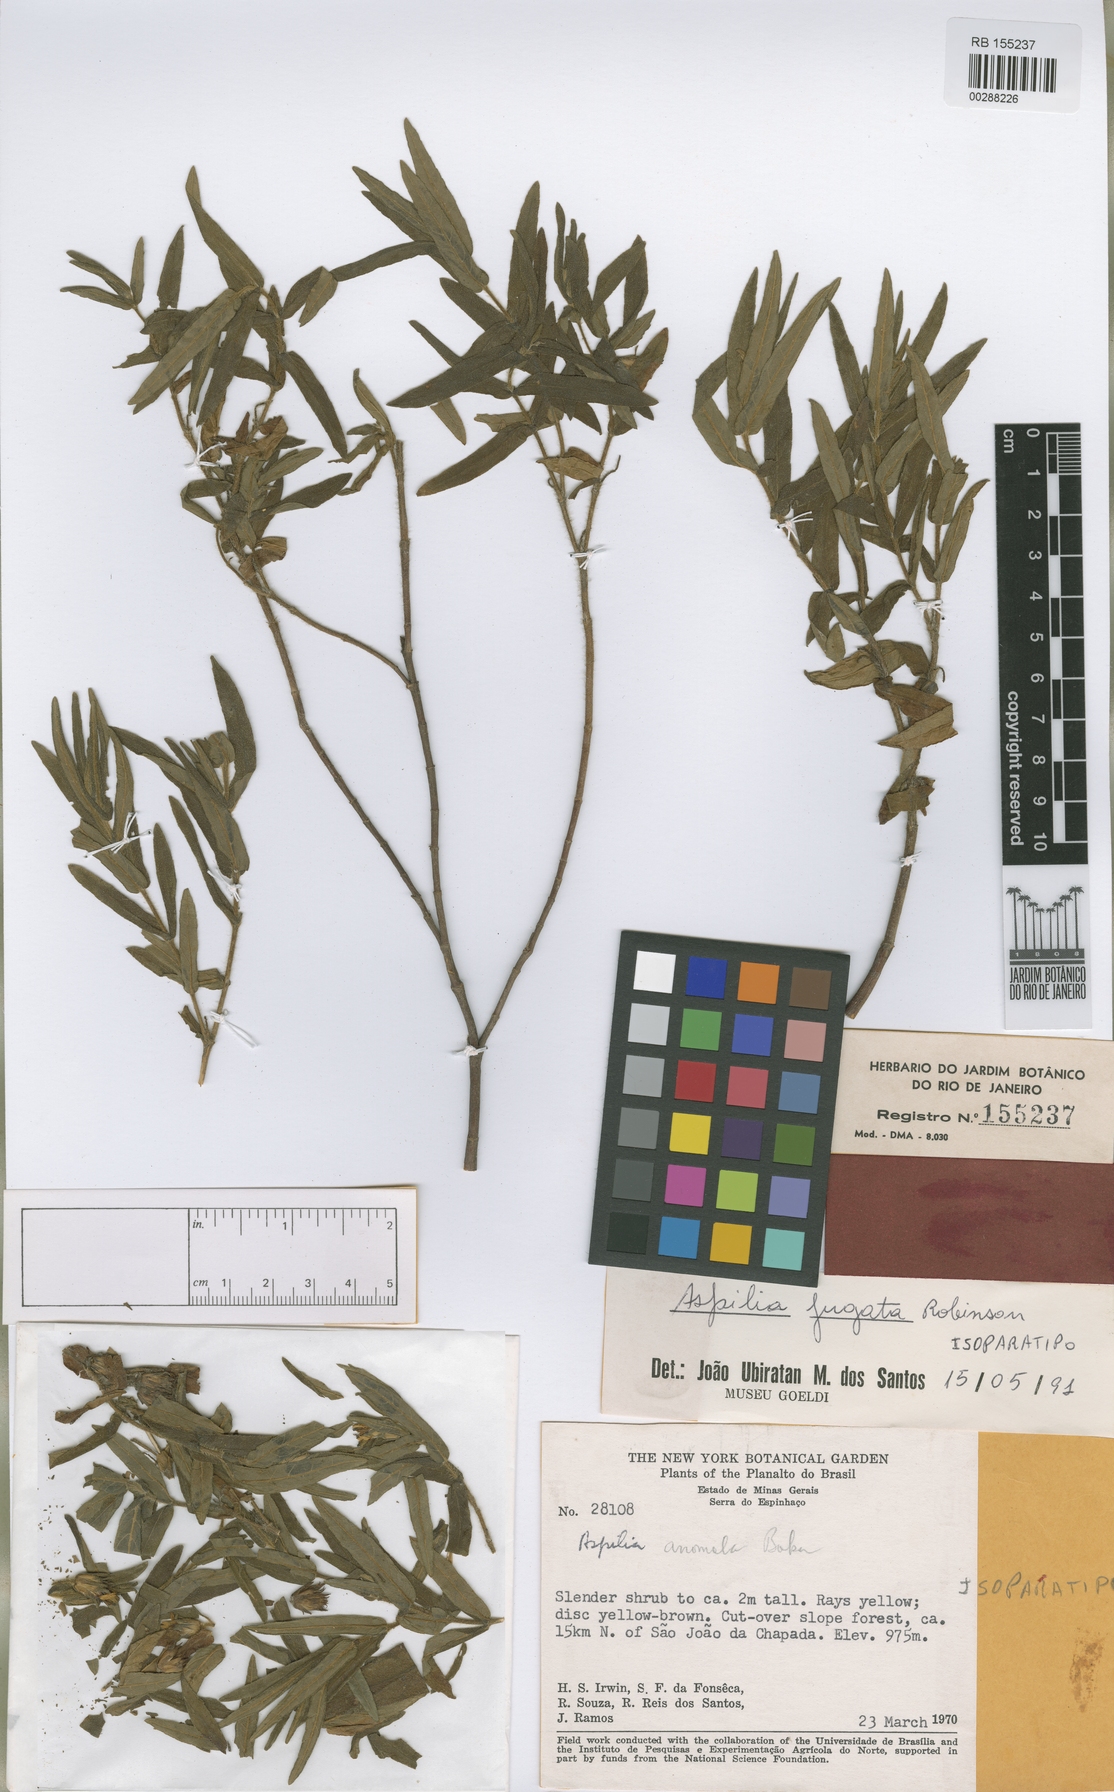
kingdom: Plantae
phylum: Tracheophyta
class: Magnoliopsida
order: Asterales
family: Asteraceae
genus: Wedelia
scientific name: Wedelia jugata
